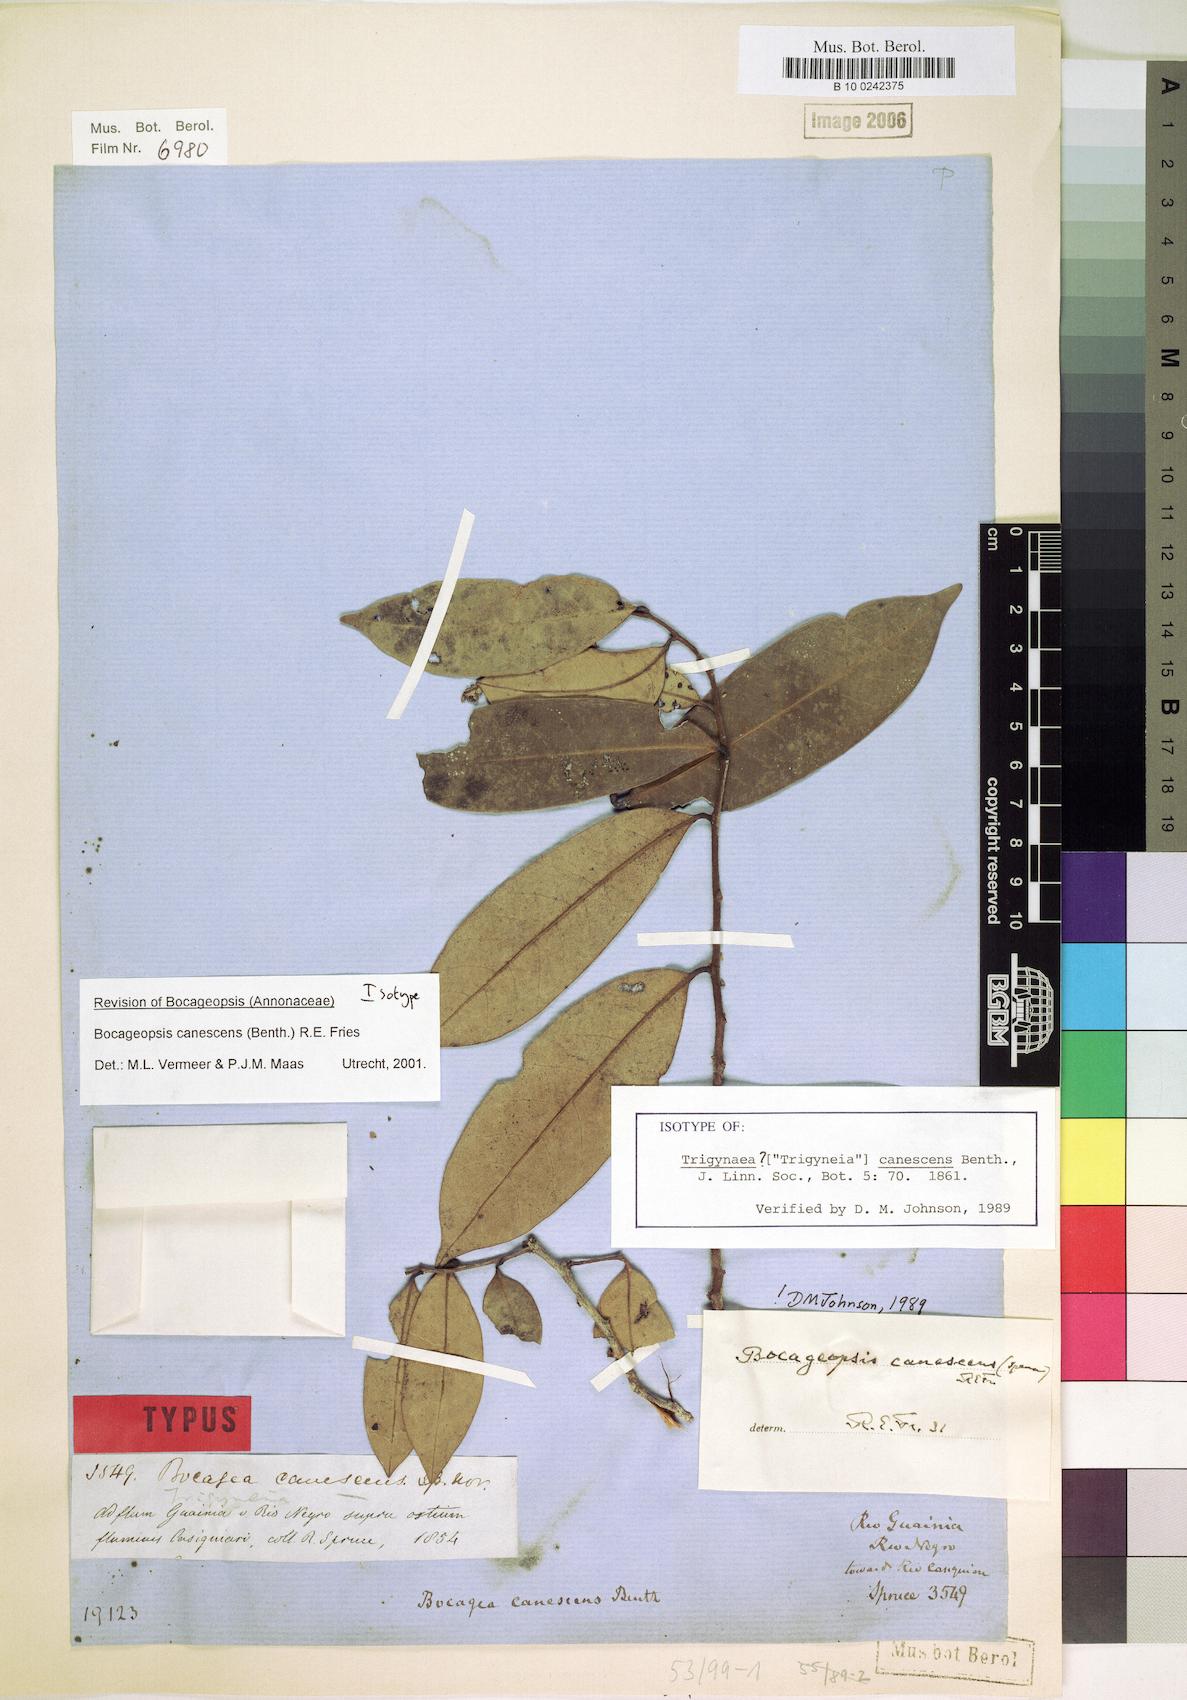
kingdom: Plantae
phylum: Tracheophyta
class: Magnoliopsida
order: Magnoliales
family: Annonaceae
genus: Bocageopsis
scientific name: Bocageopsis canescens
